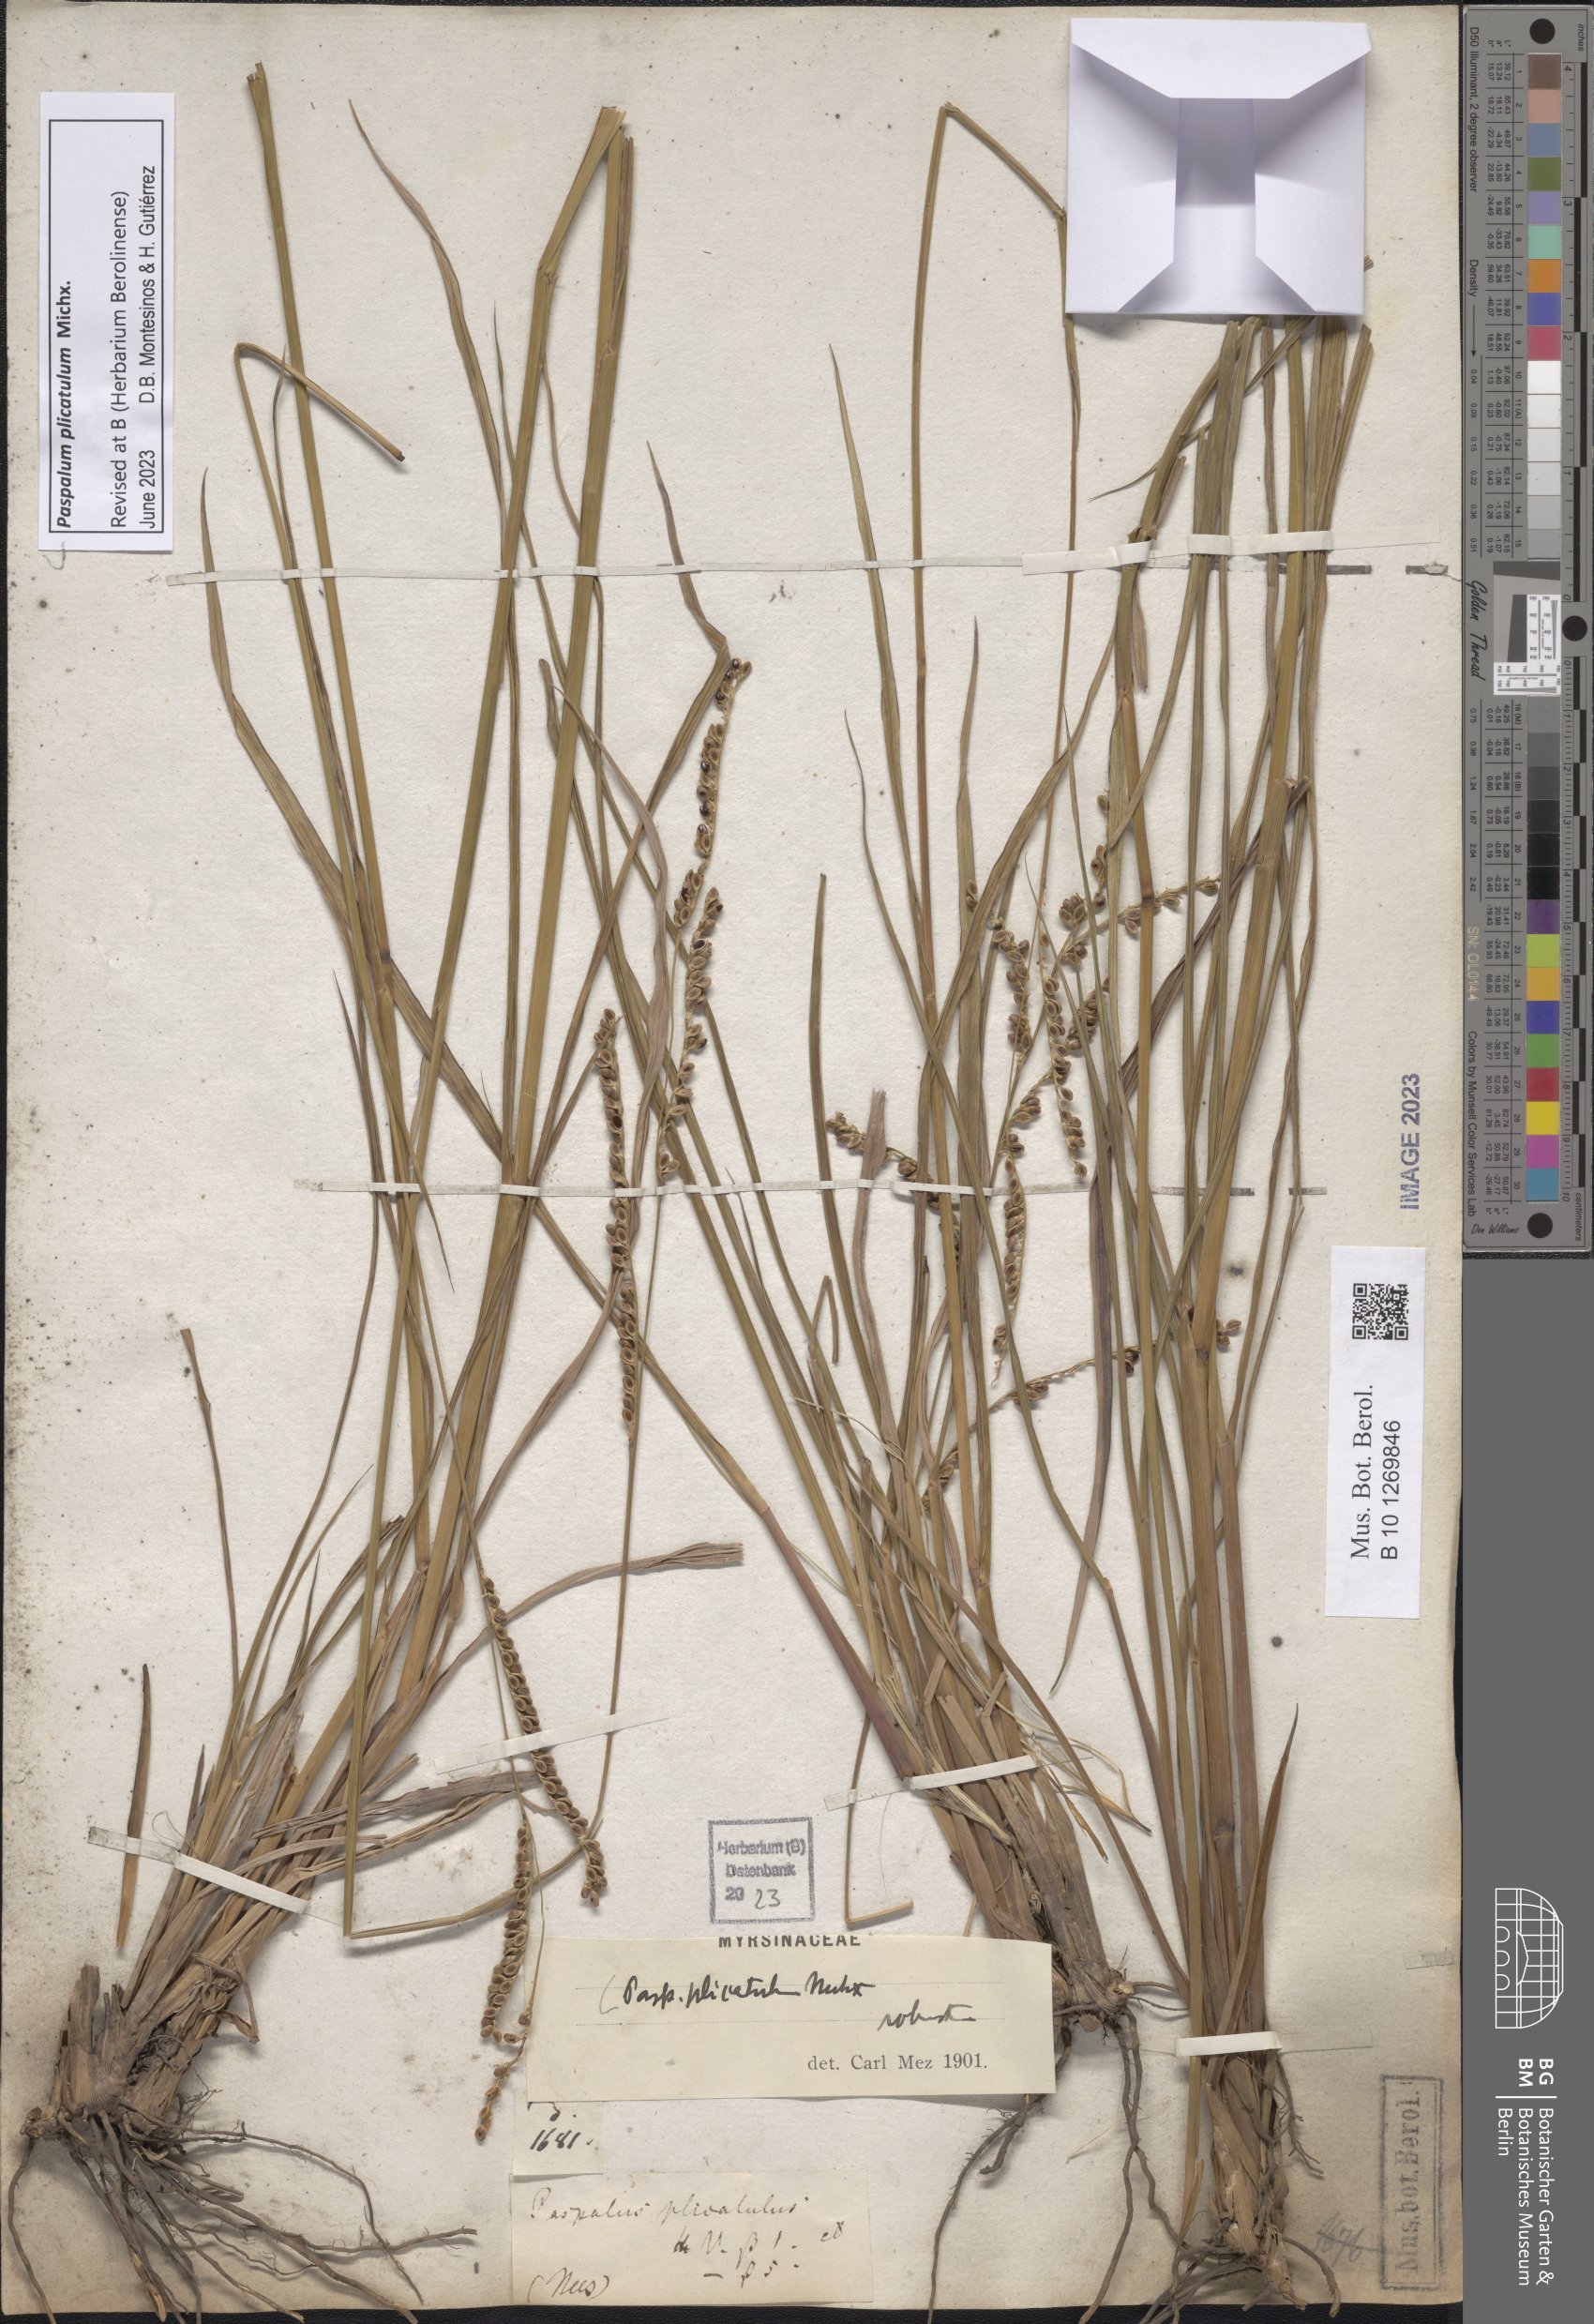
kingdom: Plantae
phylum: Tracheophyta
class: Liliopsida
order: Poales
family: Poaceae
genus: Paspalum
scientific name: Paspalum plicatulum
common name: Top paspalum
